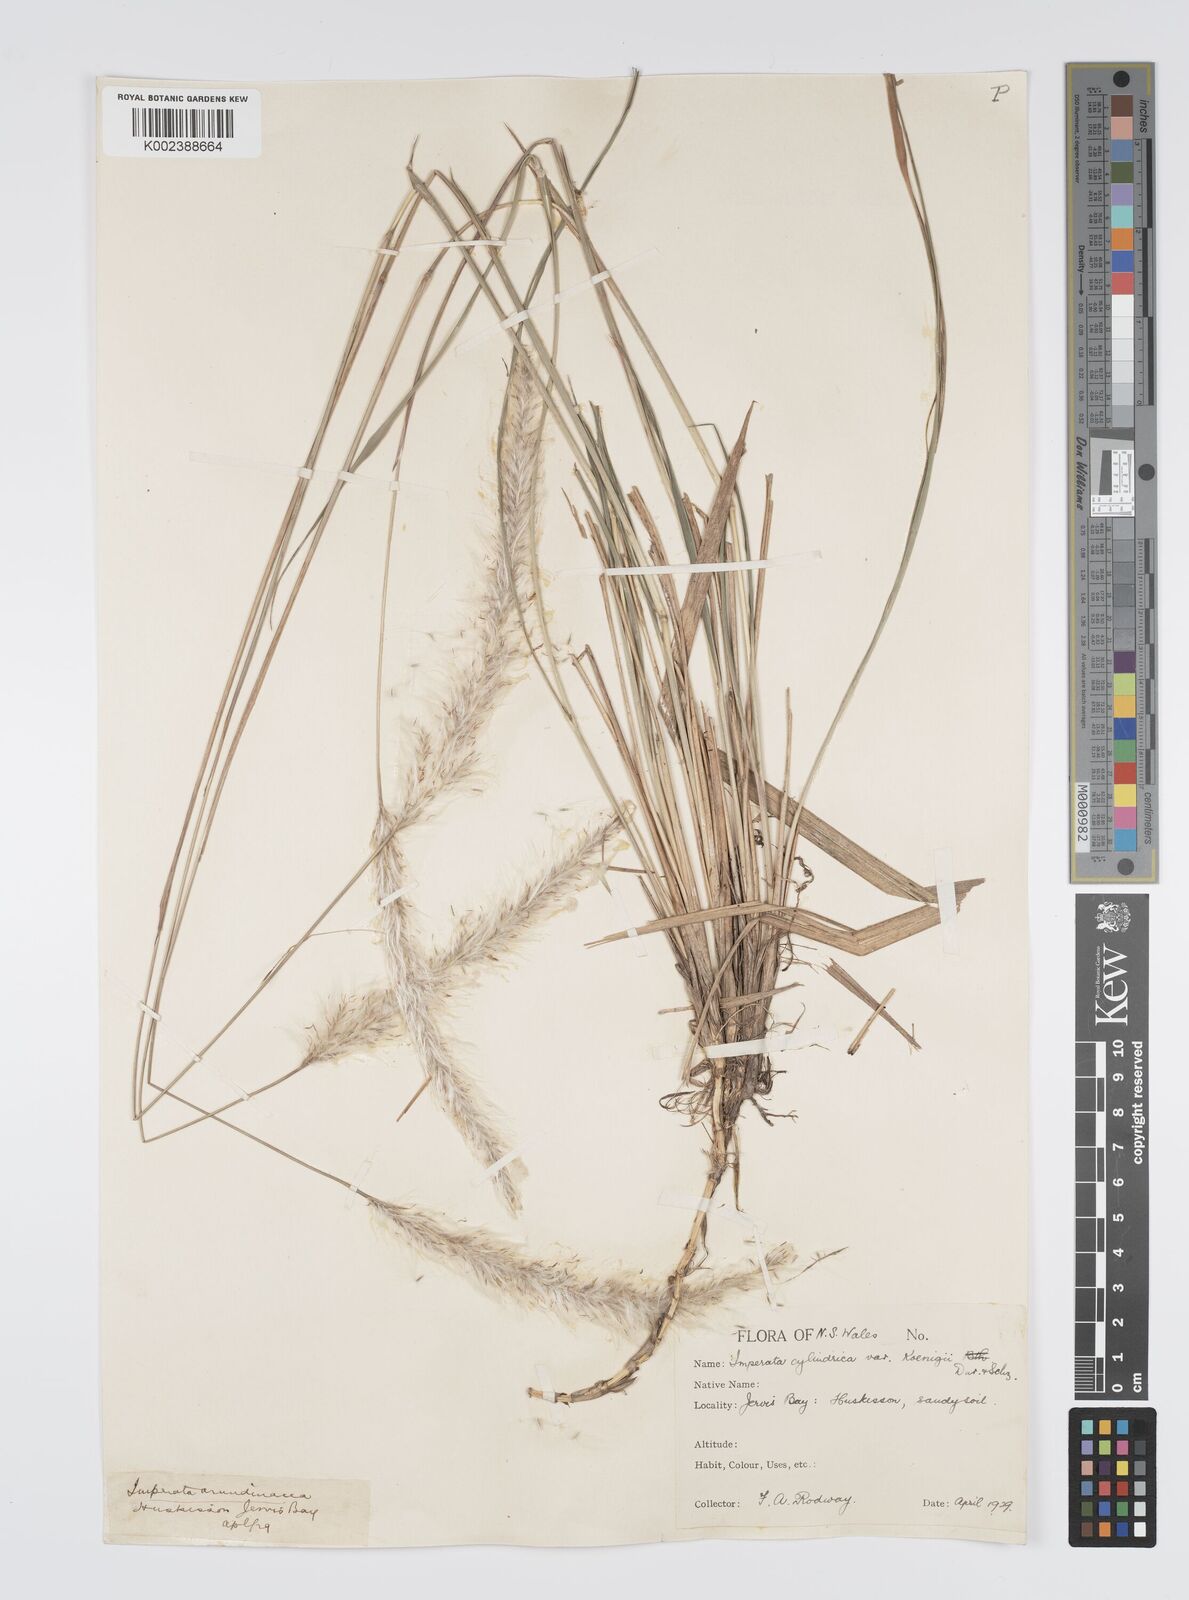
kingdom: Plantae
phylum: Tracheophyta
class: Liliopsida
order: Poales
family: Poaceae
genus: Imperata
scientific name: Imperata cylindrica
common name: Cogongrass
